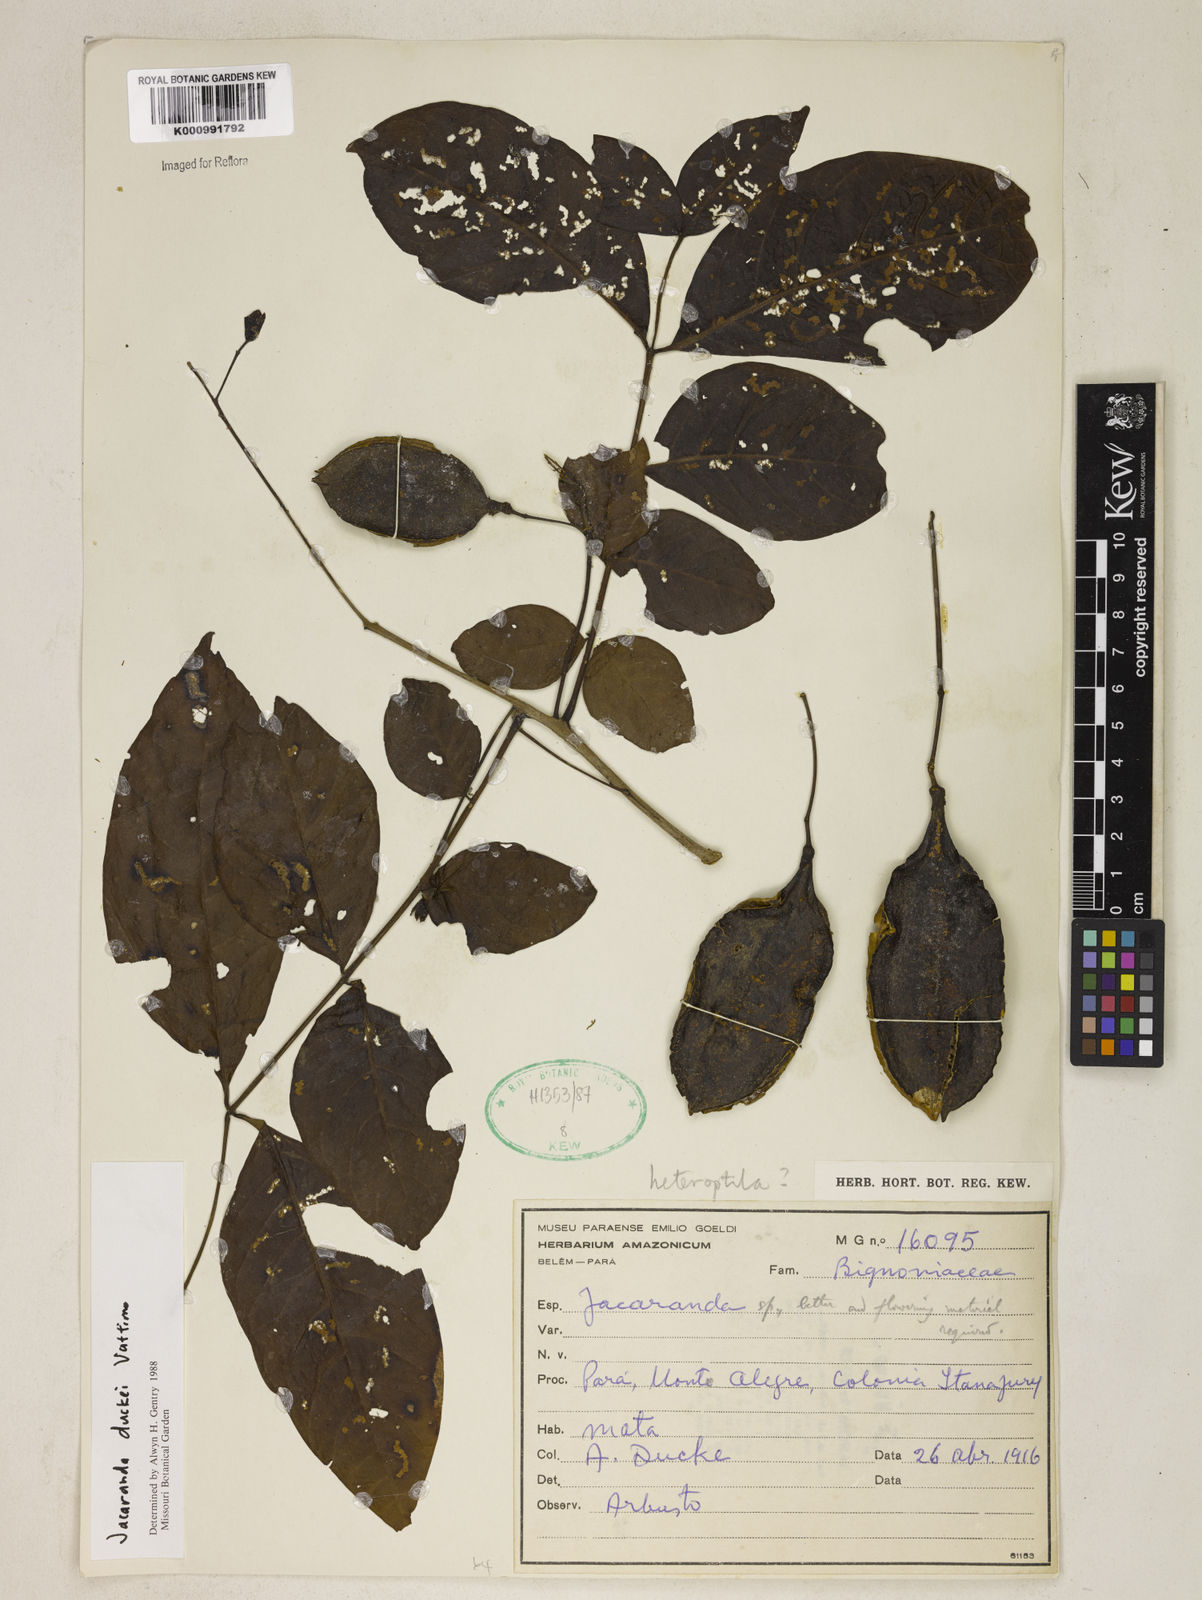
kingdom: Plantae
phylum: Tracheophyta
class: Magnoliopsida
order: Lamiales
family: Bignoniaceae
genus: Jacaranda
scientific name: Jacaranda duckei
